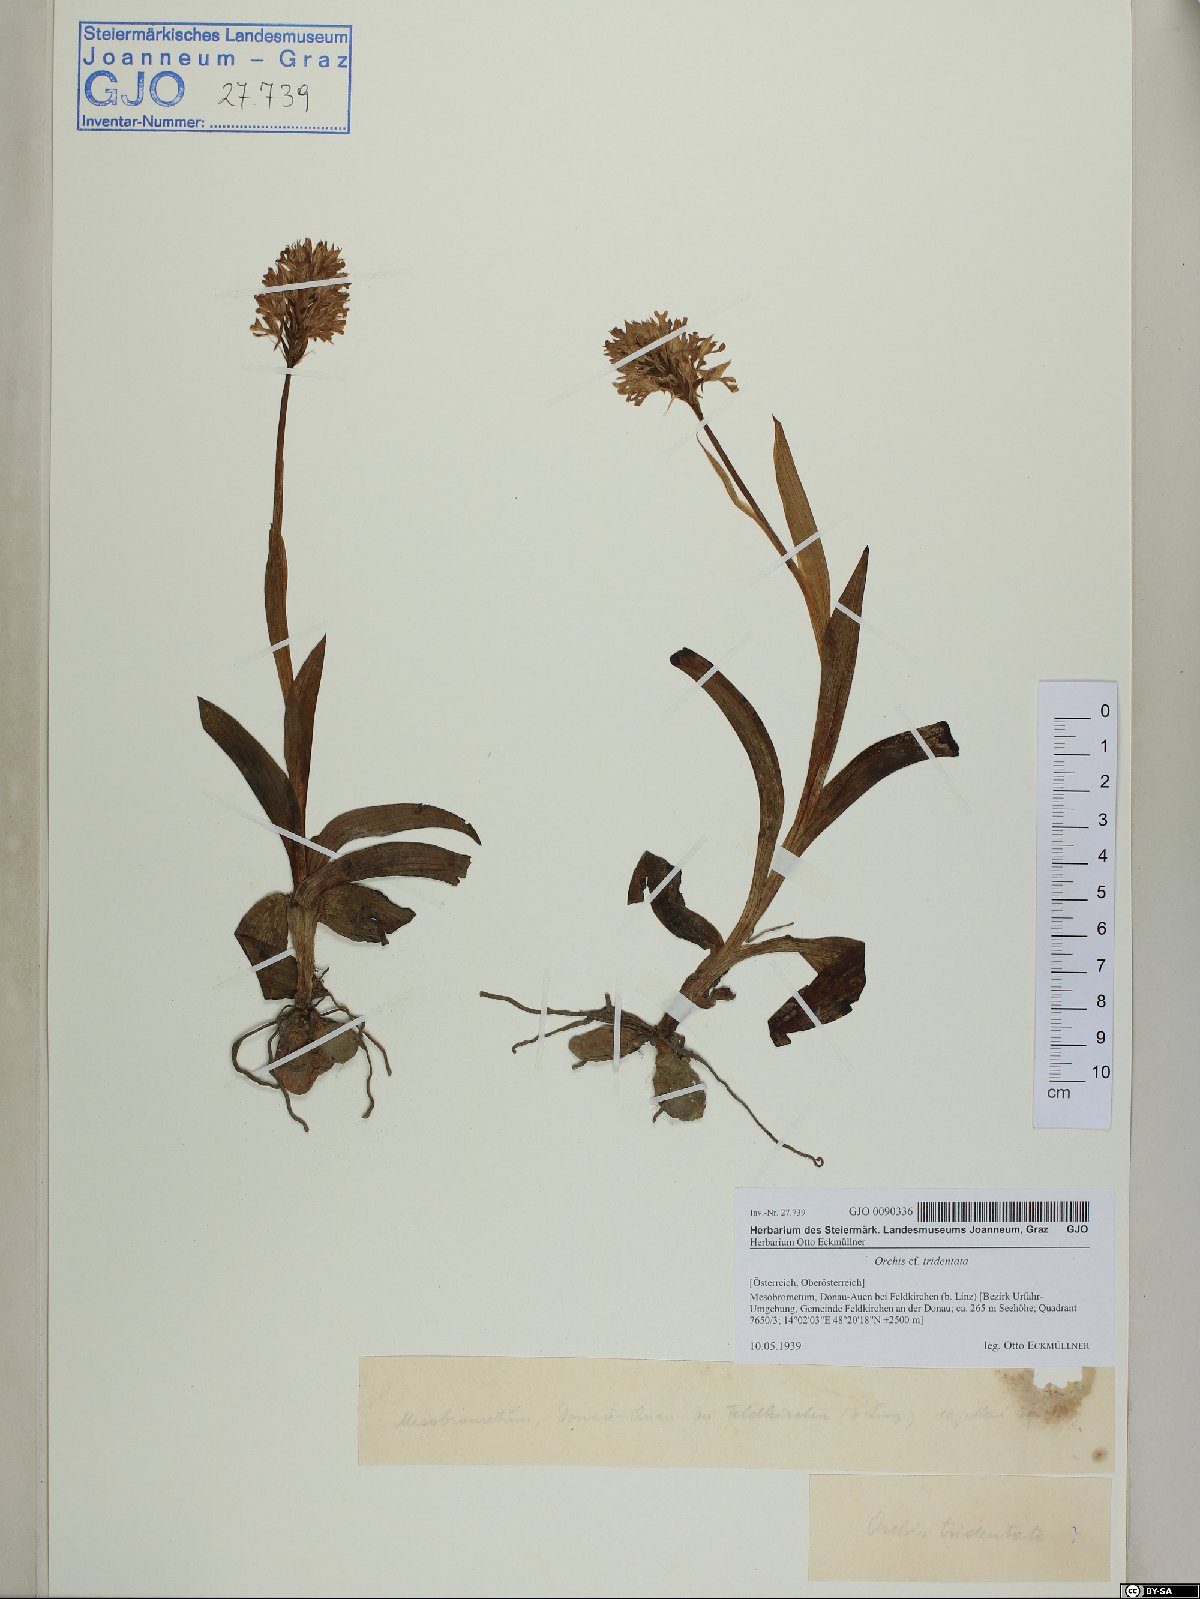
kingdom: Plantae
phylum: Tracheophyta
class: Liliopsida
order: Asparagales
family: Orchidaceae
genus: Neotinea
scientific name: Neotinea tridentata
